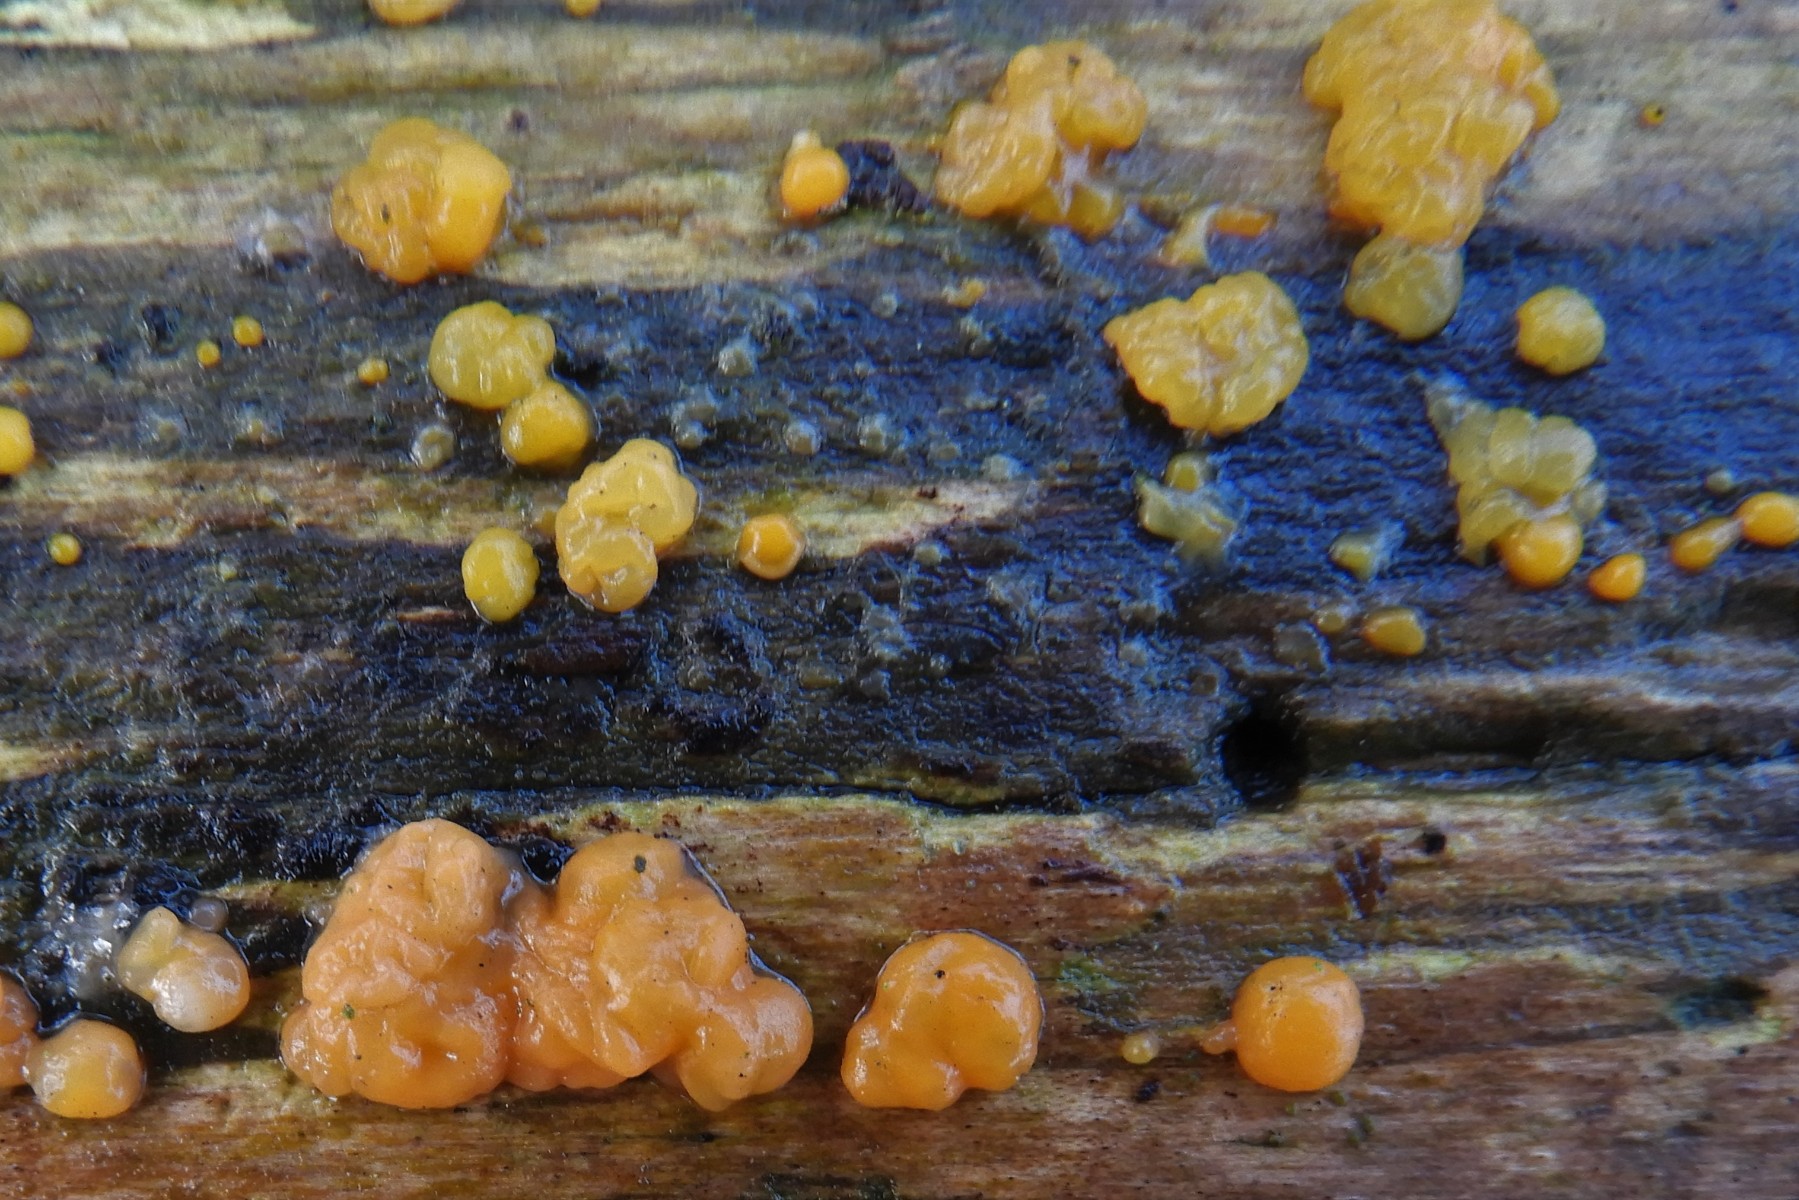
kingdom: Fungi
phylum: Basidiomycota
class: Dacrymycetes
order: Dacrymycetales
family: Dacrymycetaceae
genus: Dacrymyces
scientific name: Dacrymyces lacrymalis
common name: rynket tåresvamp
